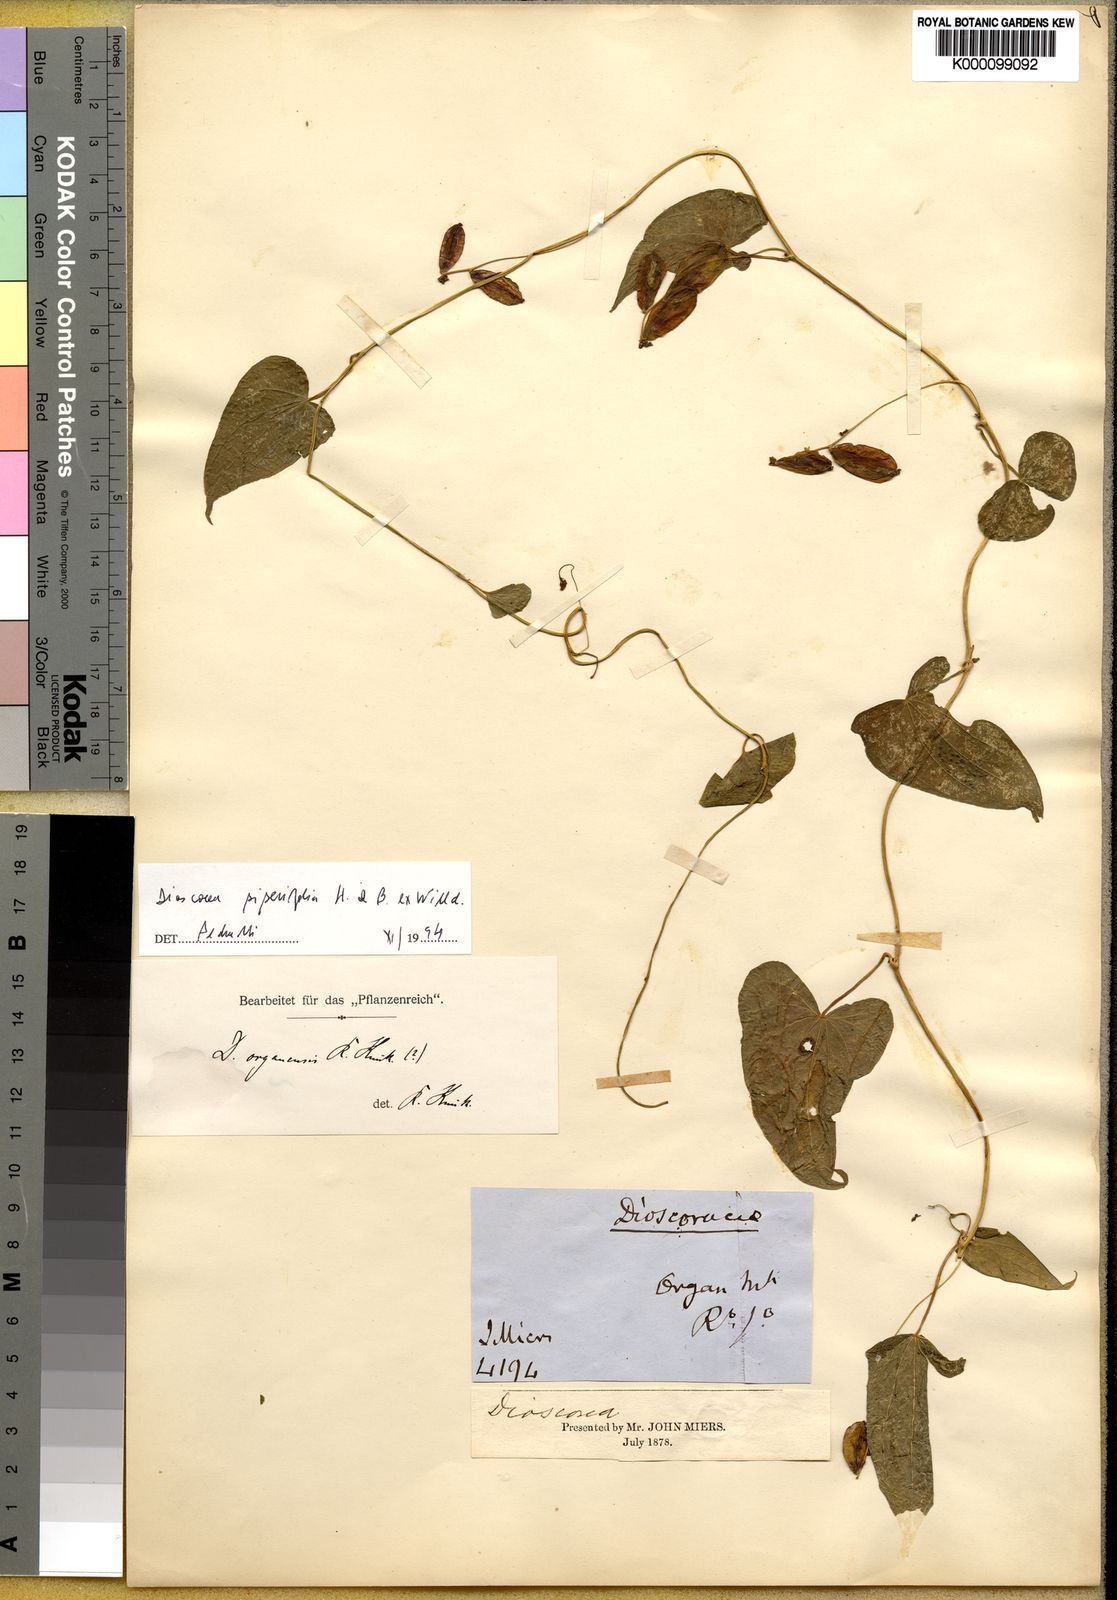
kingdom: Plantae
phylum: Tracheophyta
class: Liliopsida
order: Dioscoreales
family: Dioscoreaceae
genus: Dioscorea
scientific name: Dioscorea organensis
